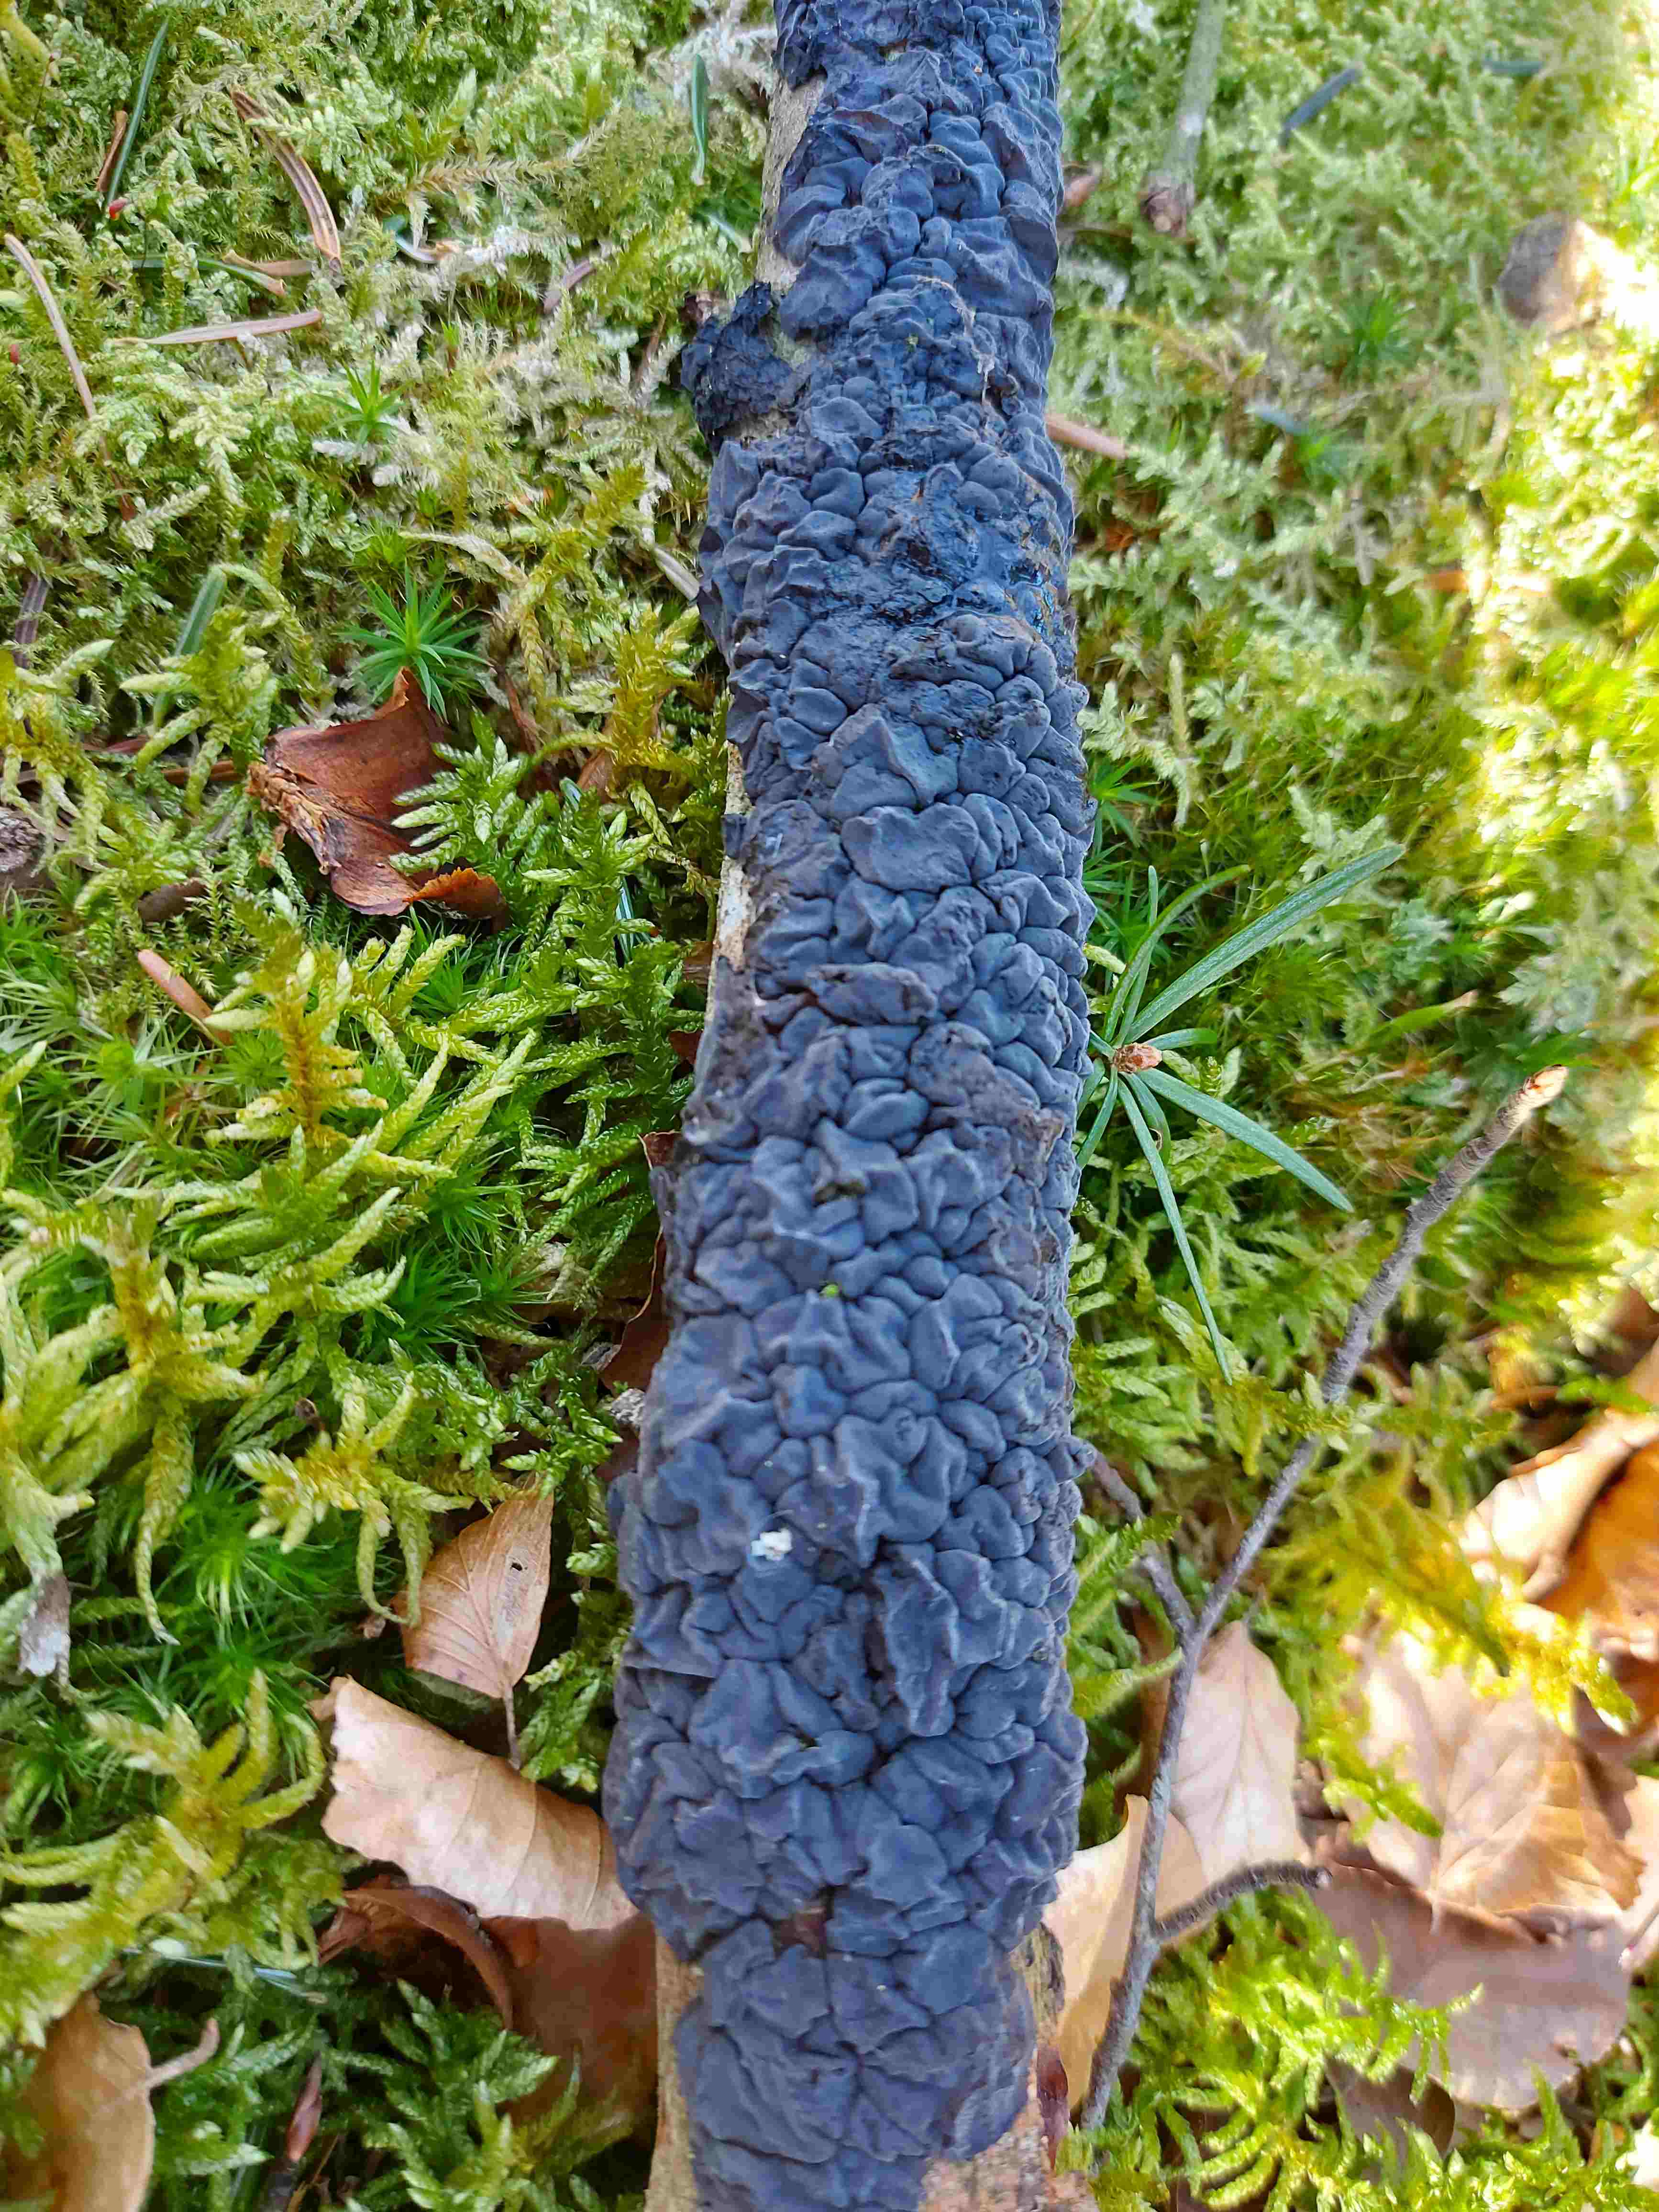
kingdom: Fungi
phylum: Basidiomycota
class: Agaricomycetes
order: Auriculariales
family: Auriculariaceae
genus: Exidia
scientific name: Exidia nigricans
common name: almindelig bævretop
